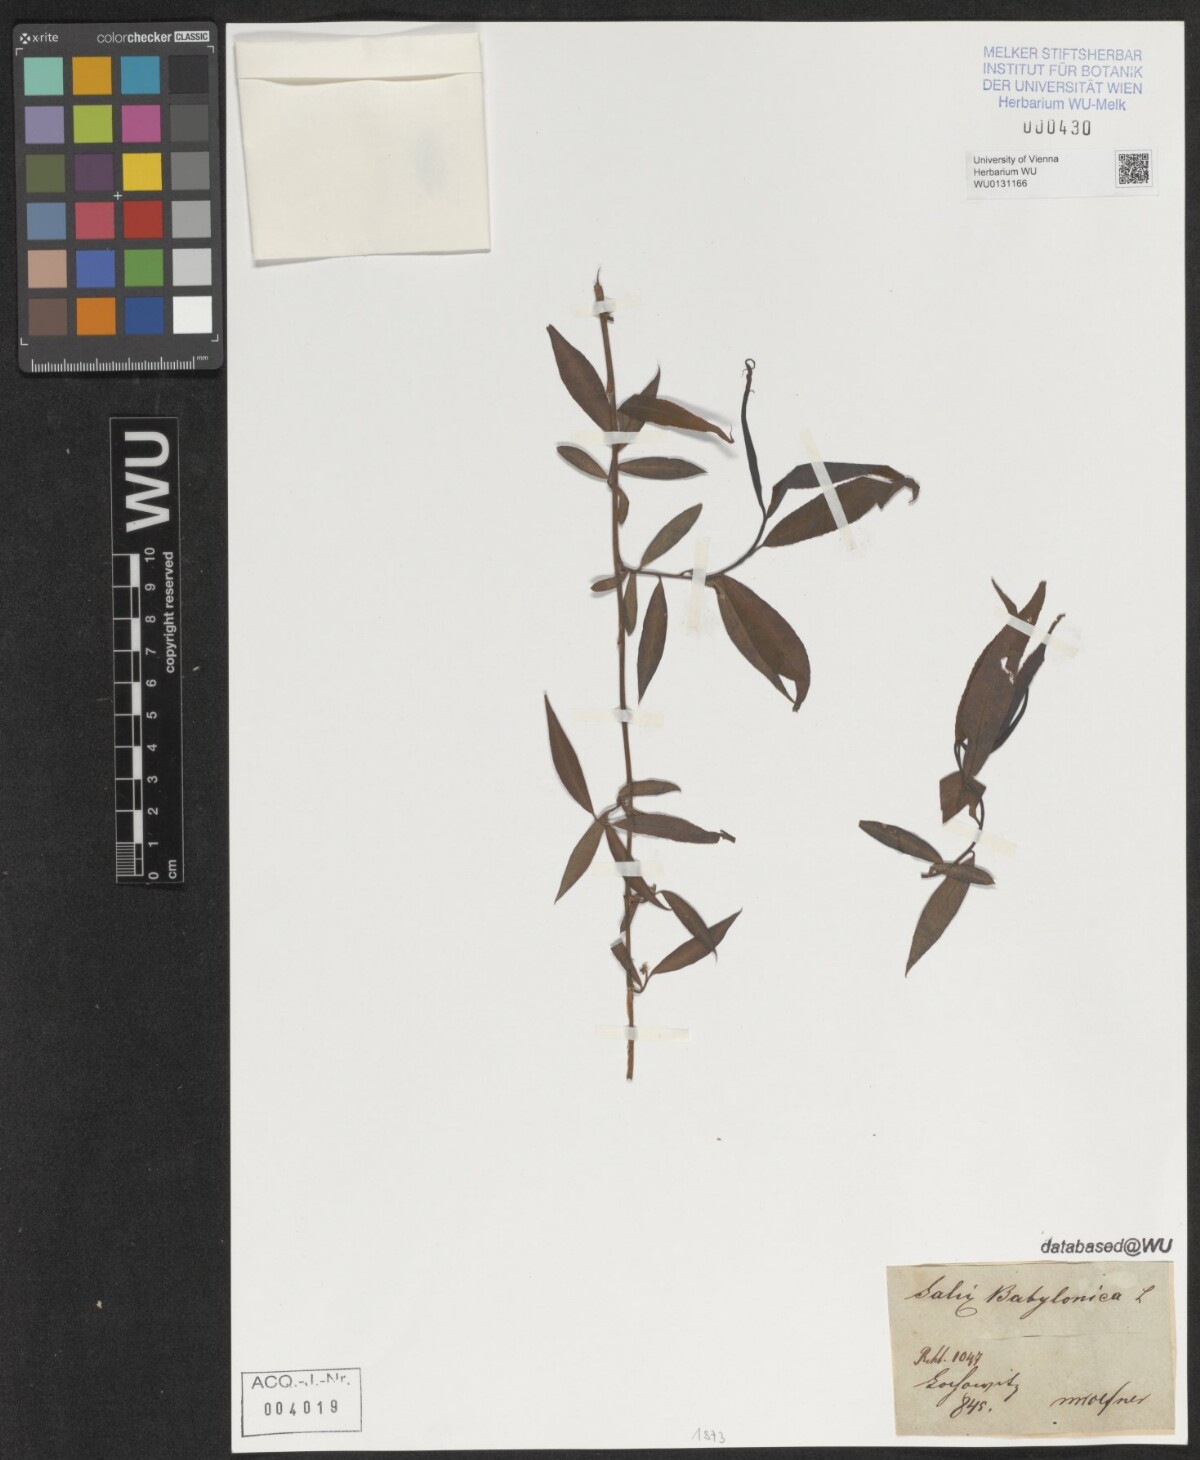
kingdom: Plantae
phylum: Tracheophyta
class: Magnoliopsida
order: Malpighiales
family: Salicaceae
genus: Salix
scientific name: Salix babylonica
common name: Weeping willow
